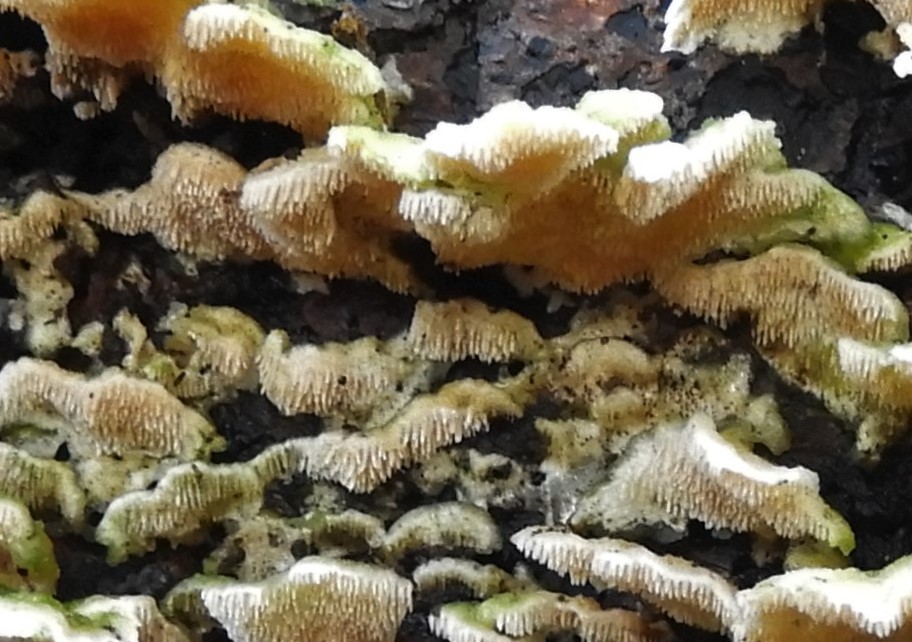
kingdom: Fungi
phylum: Basidiomycota
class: Agaricomycetes
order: Polyporales
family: Steccherinaceae
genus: Steccherinum
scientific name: Steccherinum ochraceum
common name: almindelig skønpig
